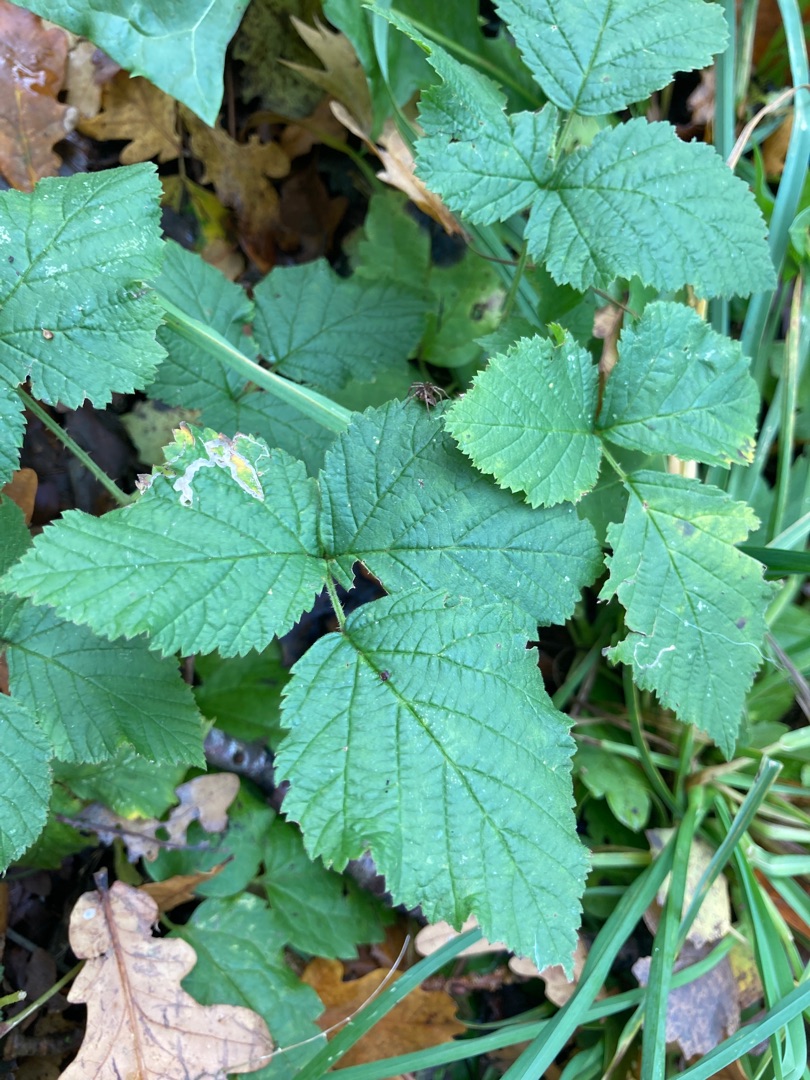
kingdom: Plantae
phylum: Tracheophyta
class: Magnoliopsida
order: Rosales
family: Rosaceae
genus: Rubus
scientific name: Rubus
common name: Klyngerslægten
